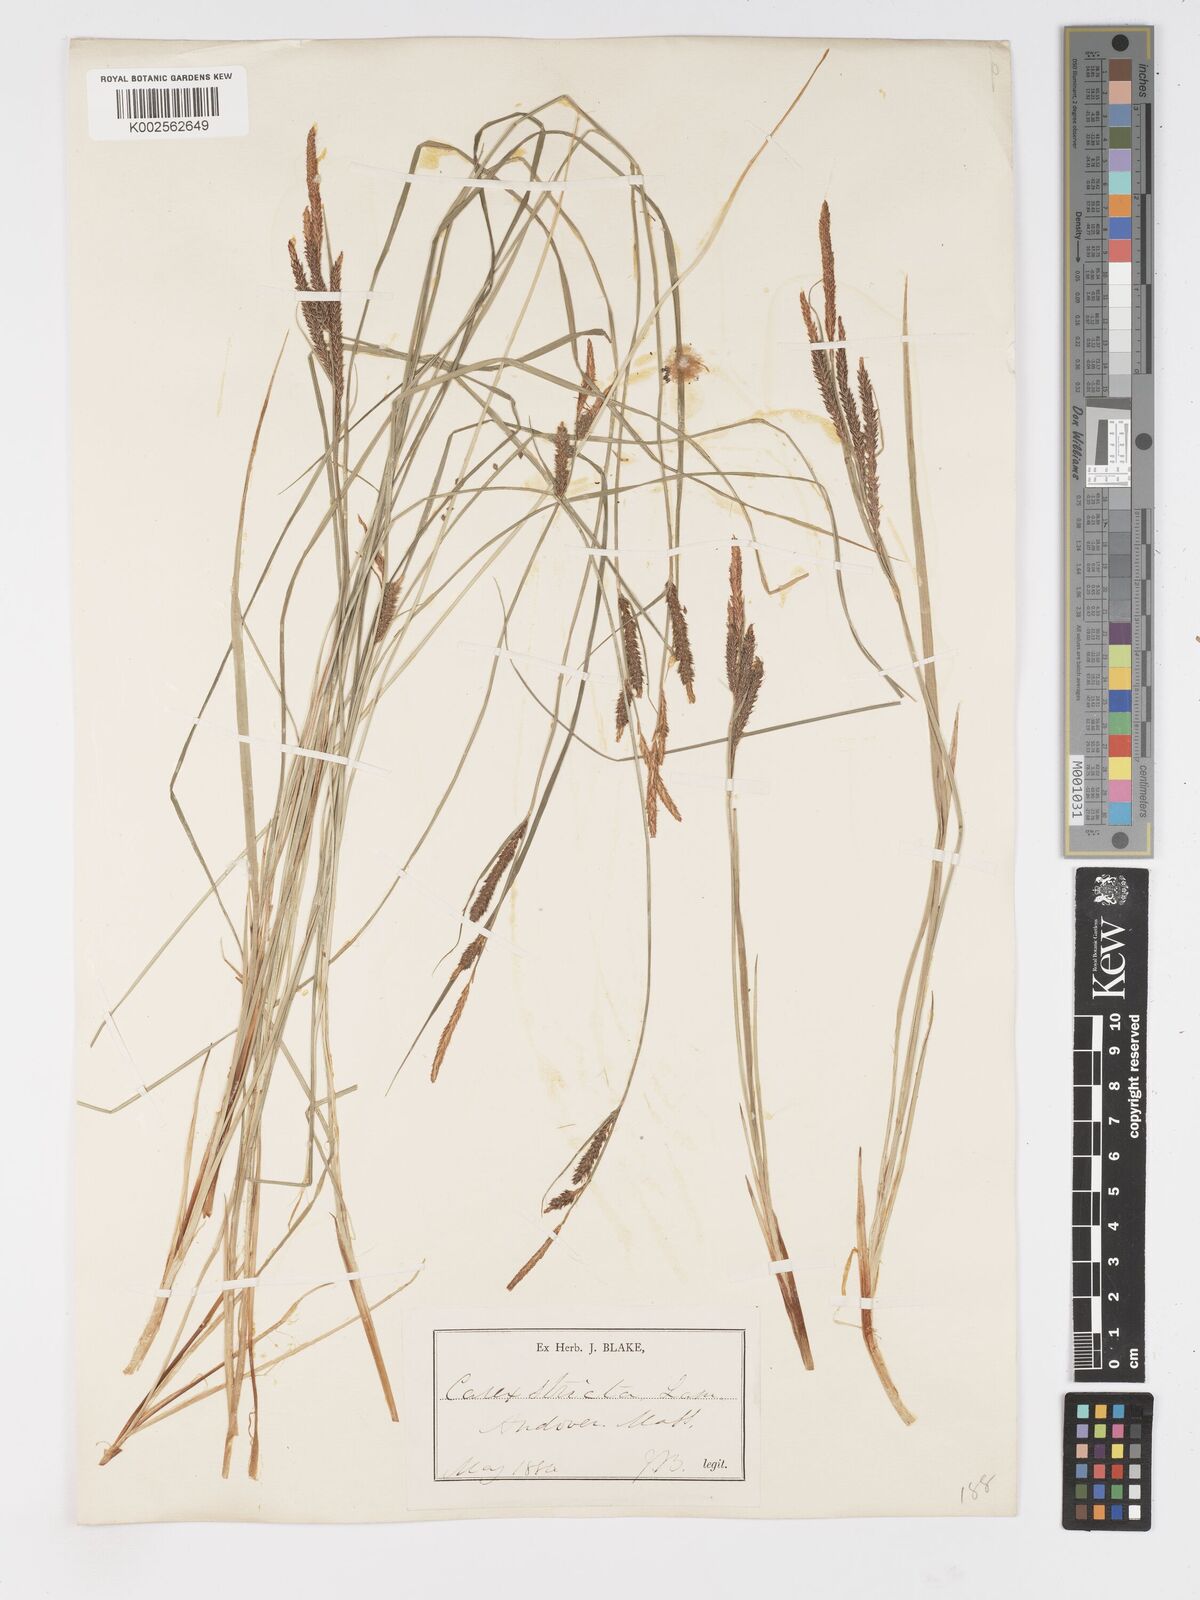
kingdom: Plantae
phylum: Tracheophyta
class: Liliopsida
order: Poales
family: Cyperaceae
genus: Carex
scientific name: Carex stricta
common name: Hummock sedge
